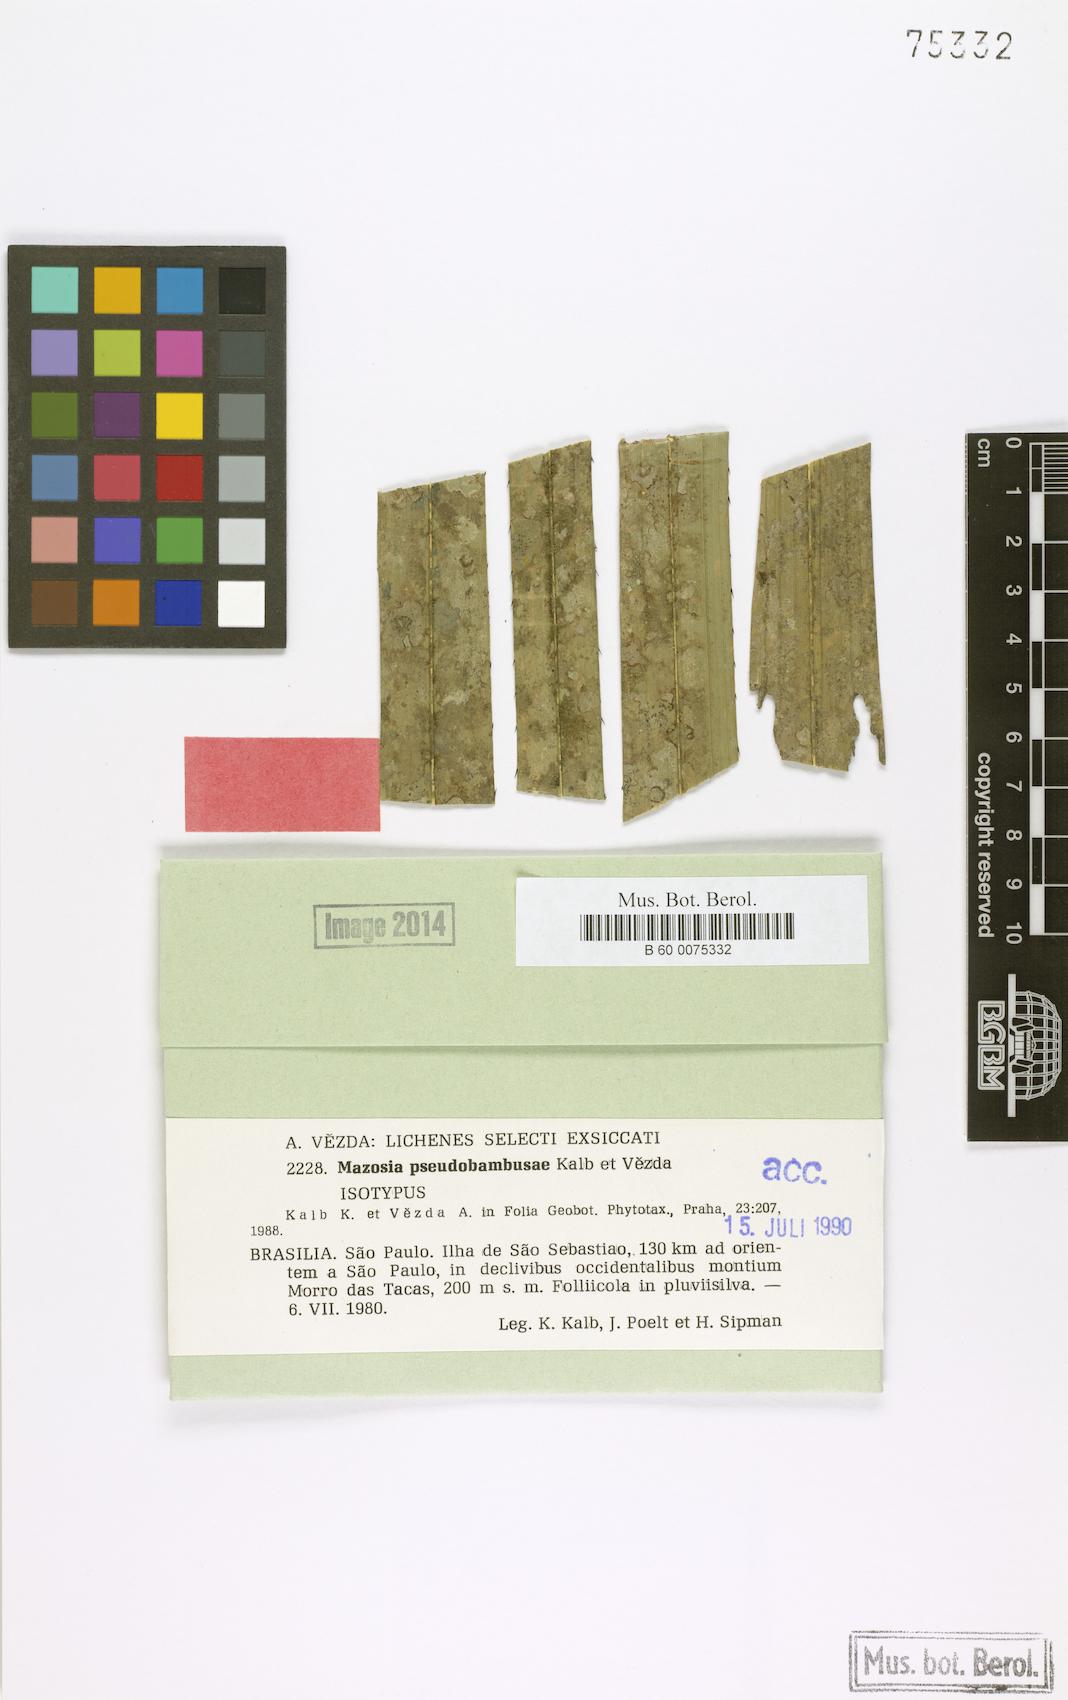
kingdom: Fungi
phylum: Ascomycota
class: Arthoniomycetes
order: Arthoniales
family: Roccellaceae
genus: Mazosia
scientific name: Mazosia pseudobambusae
